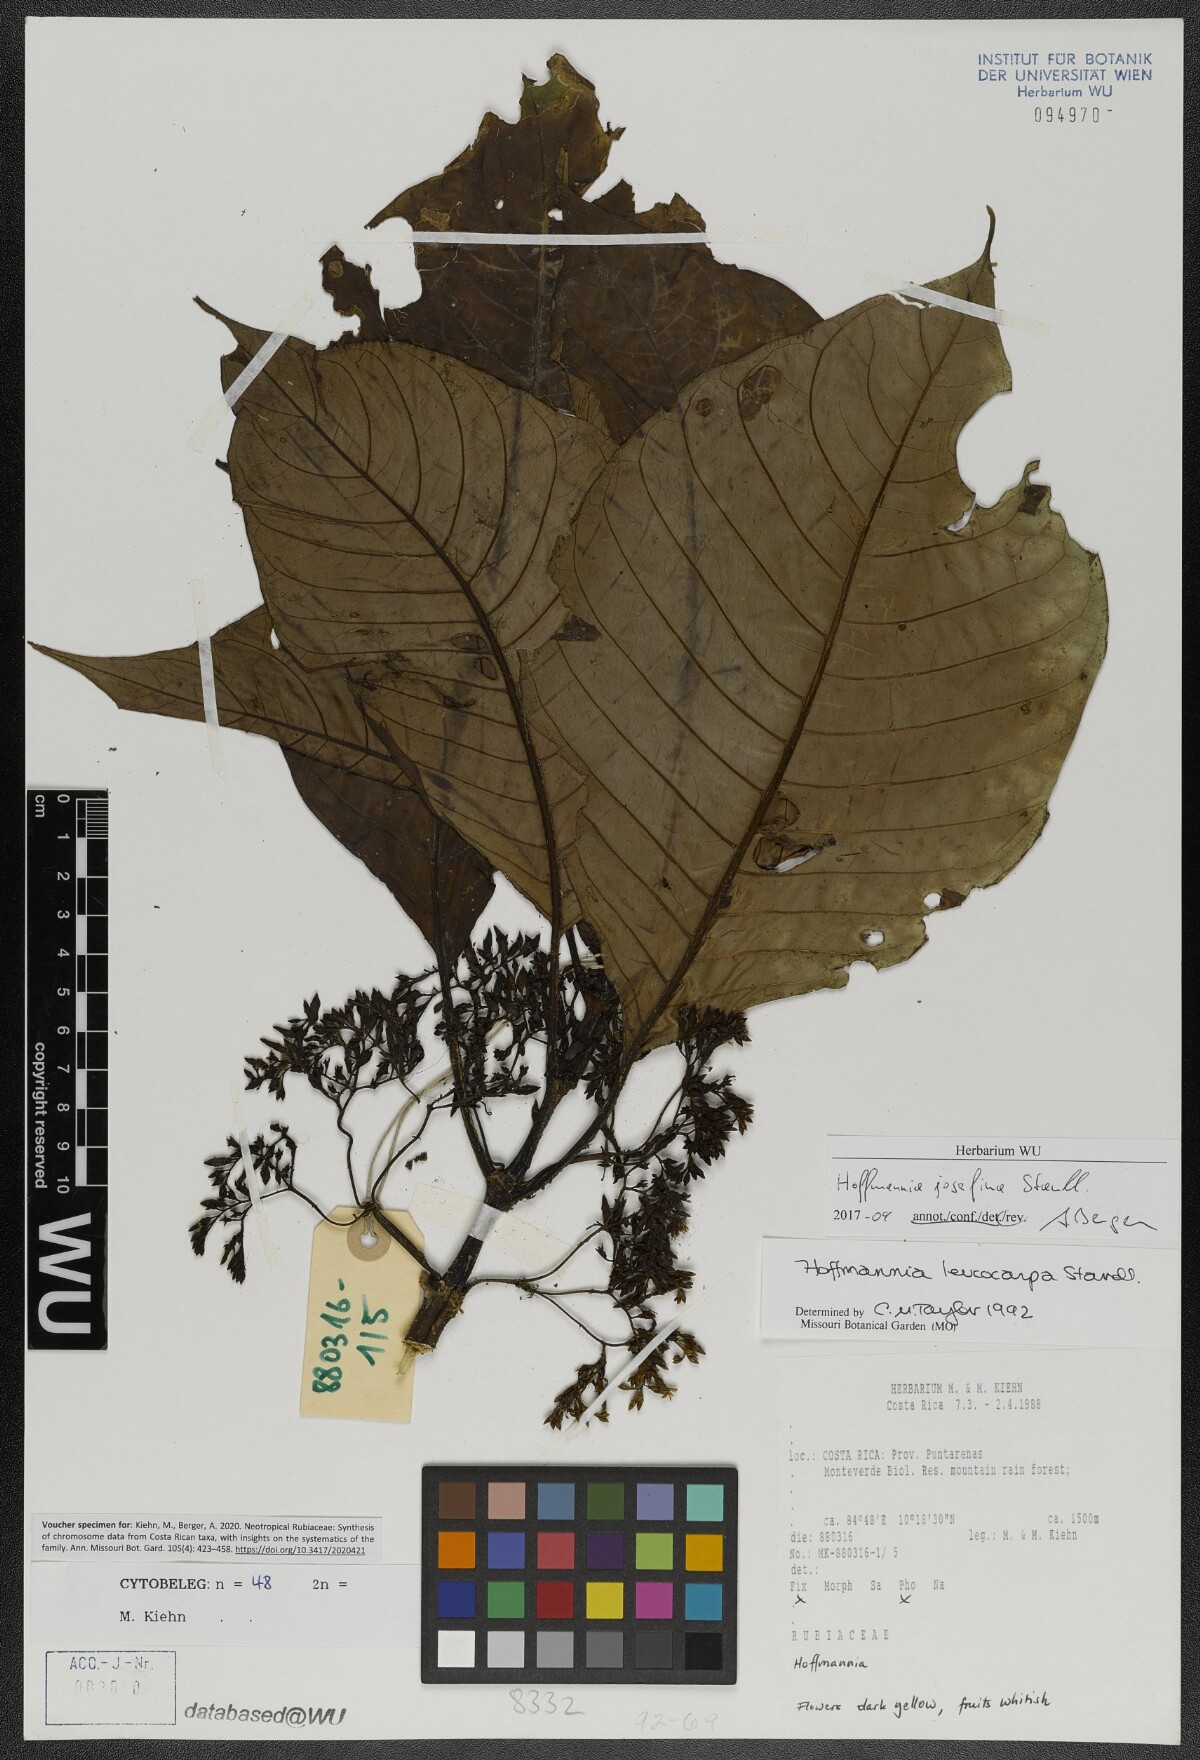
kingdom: Plantae
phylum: Tracheophyta
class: Magnoliopsida
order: Gentianales
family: Rubiaceae
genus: Hoffmannia
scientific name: Hoffmannia josefina
